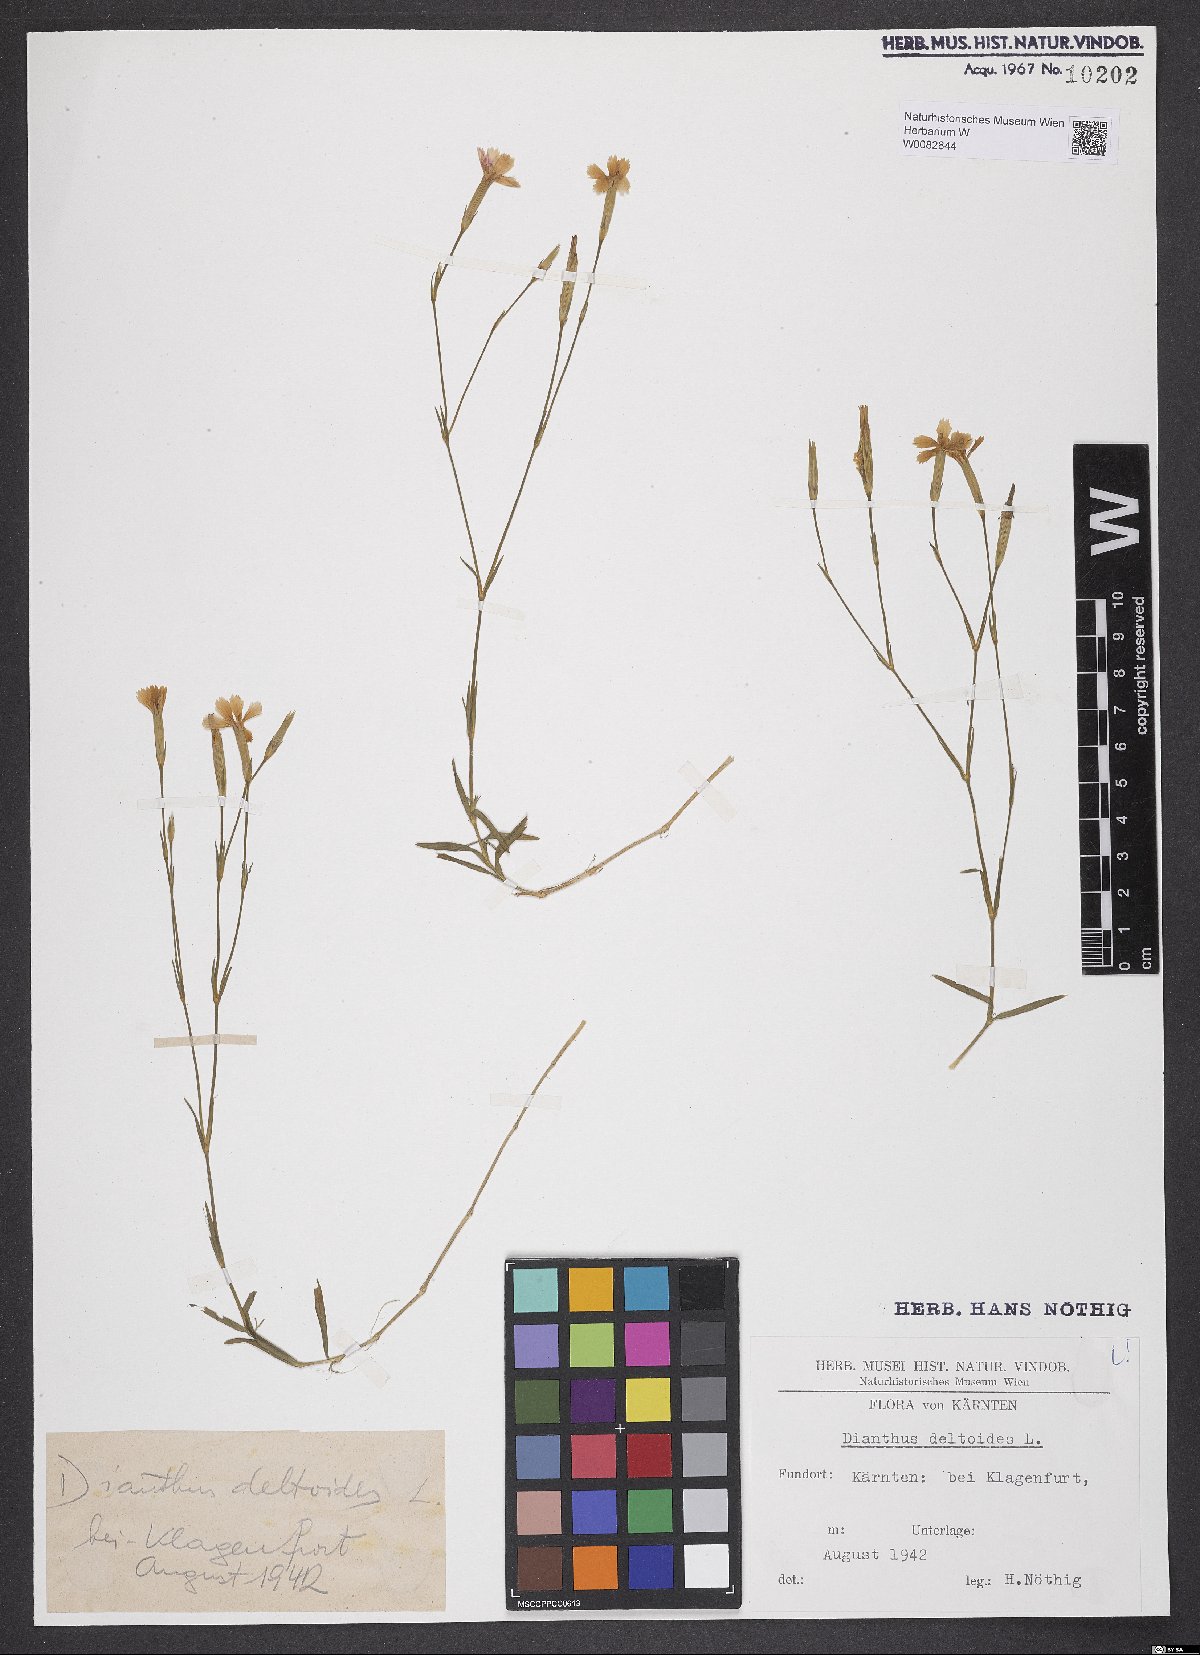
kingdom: Plantae
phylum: Tracheophyta
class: Magnoliopsida
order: Caryophyllales
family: Caryophyllaceae
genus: Dianthus
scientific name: Dianthus deltoides
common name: Maiden pink
